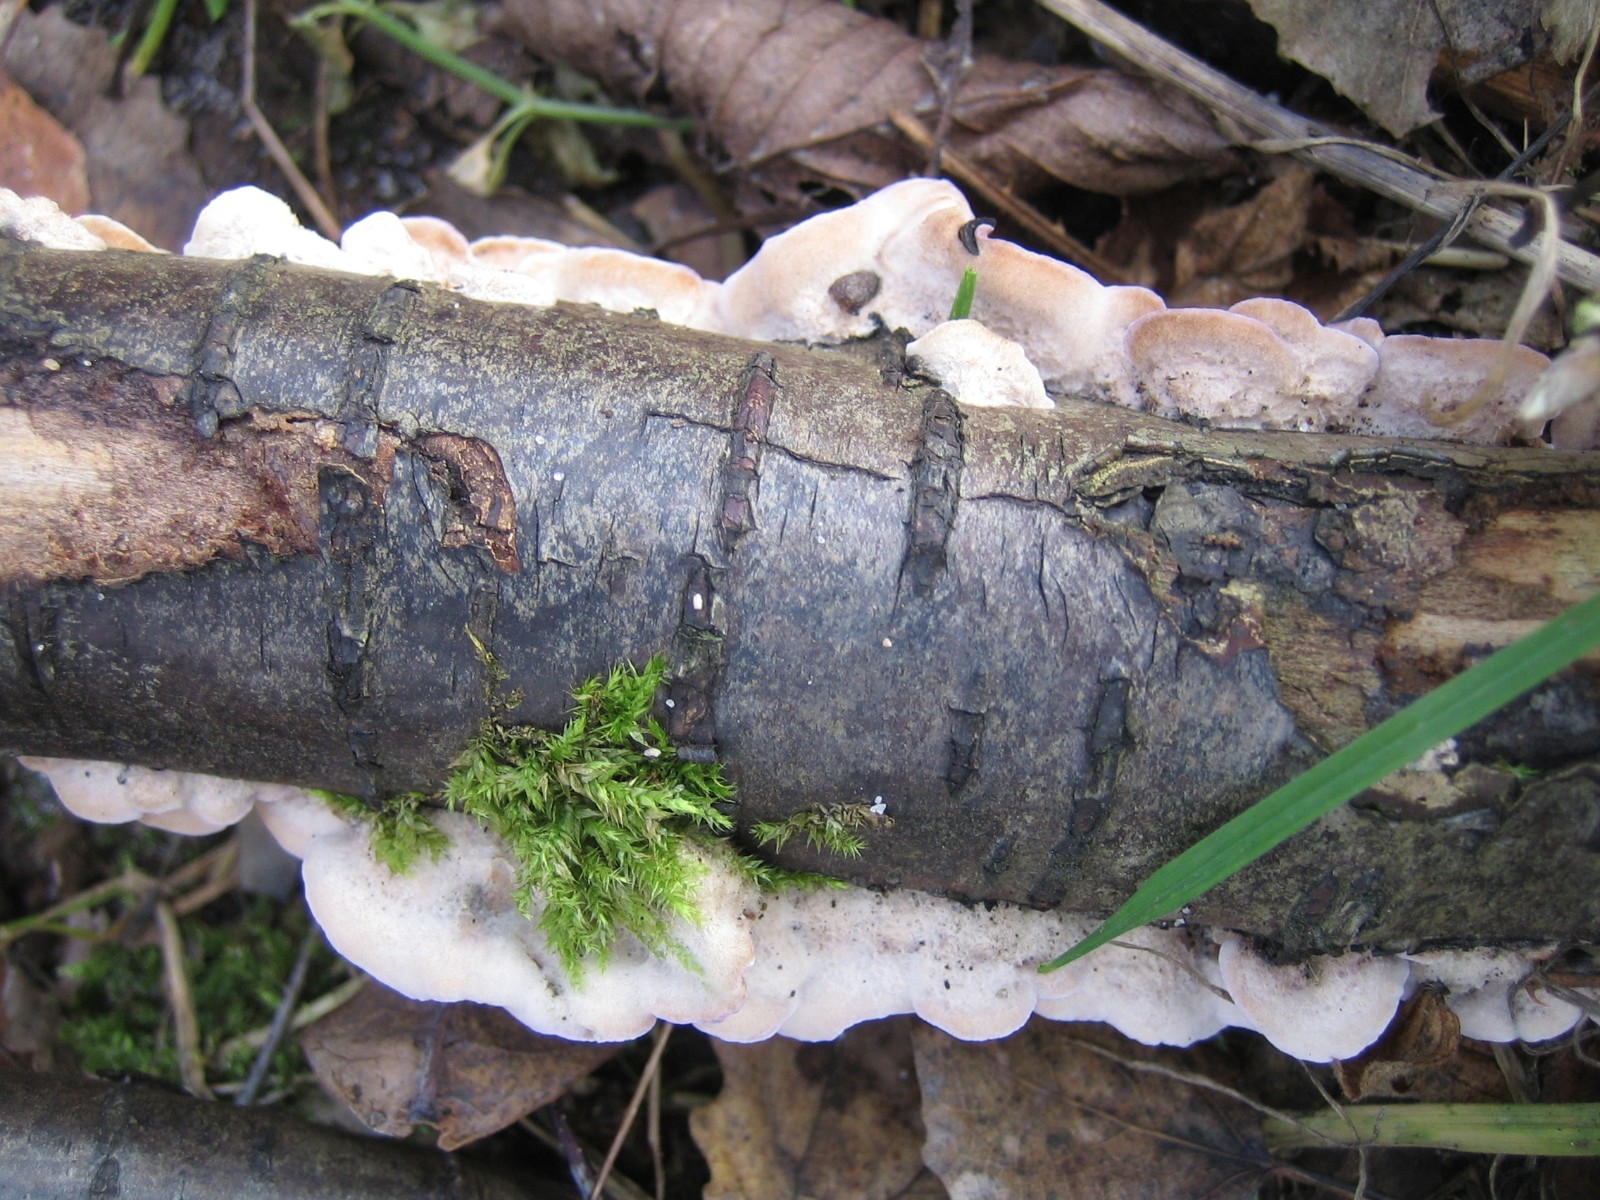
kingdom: Fungi
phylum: Basidiomycota
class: Agaricomycetes
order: Agaricales
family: Cyphellaceae
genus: Chondrostereum
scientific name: Chondrostereum purpureum
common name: purpurlædersvamp
